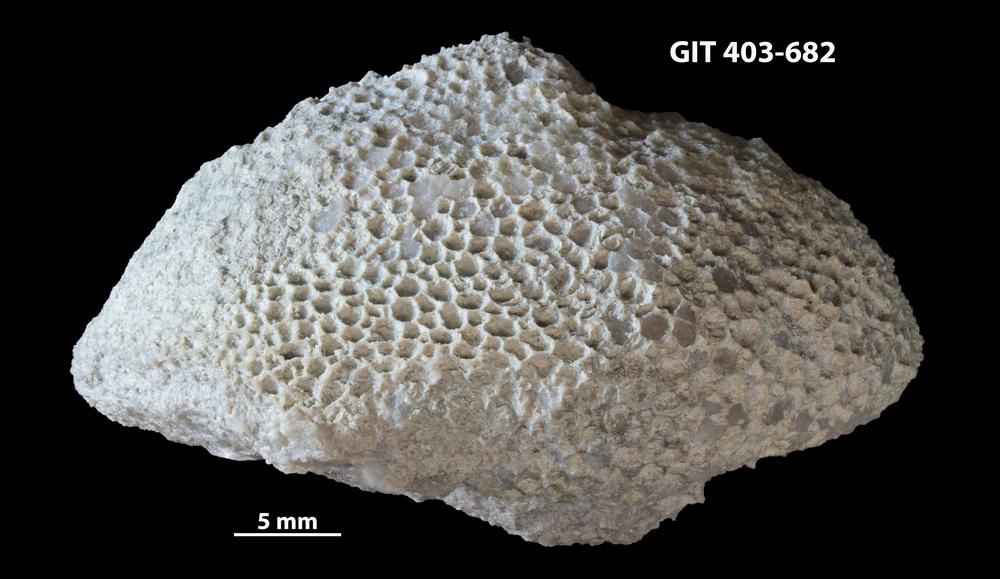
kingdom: Animalia
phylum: Cnidaria
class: Anthozoa
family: Favositidae
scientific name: Favositidae
